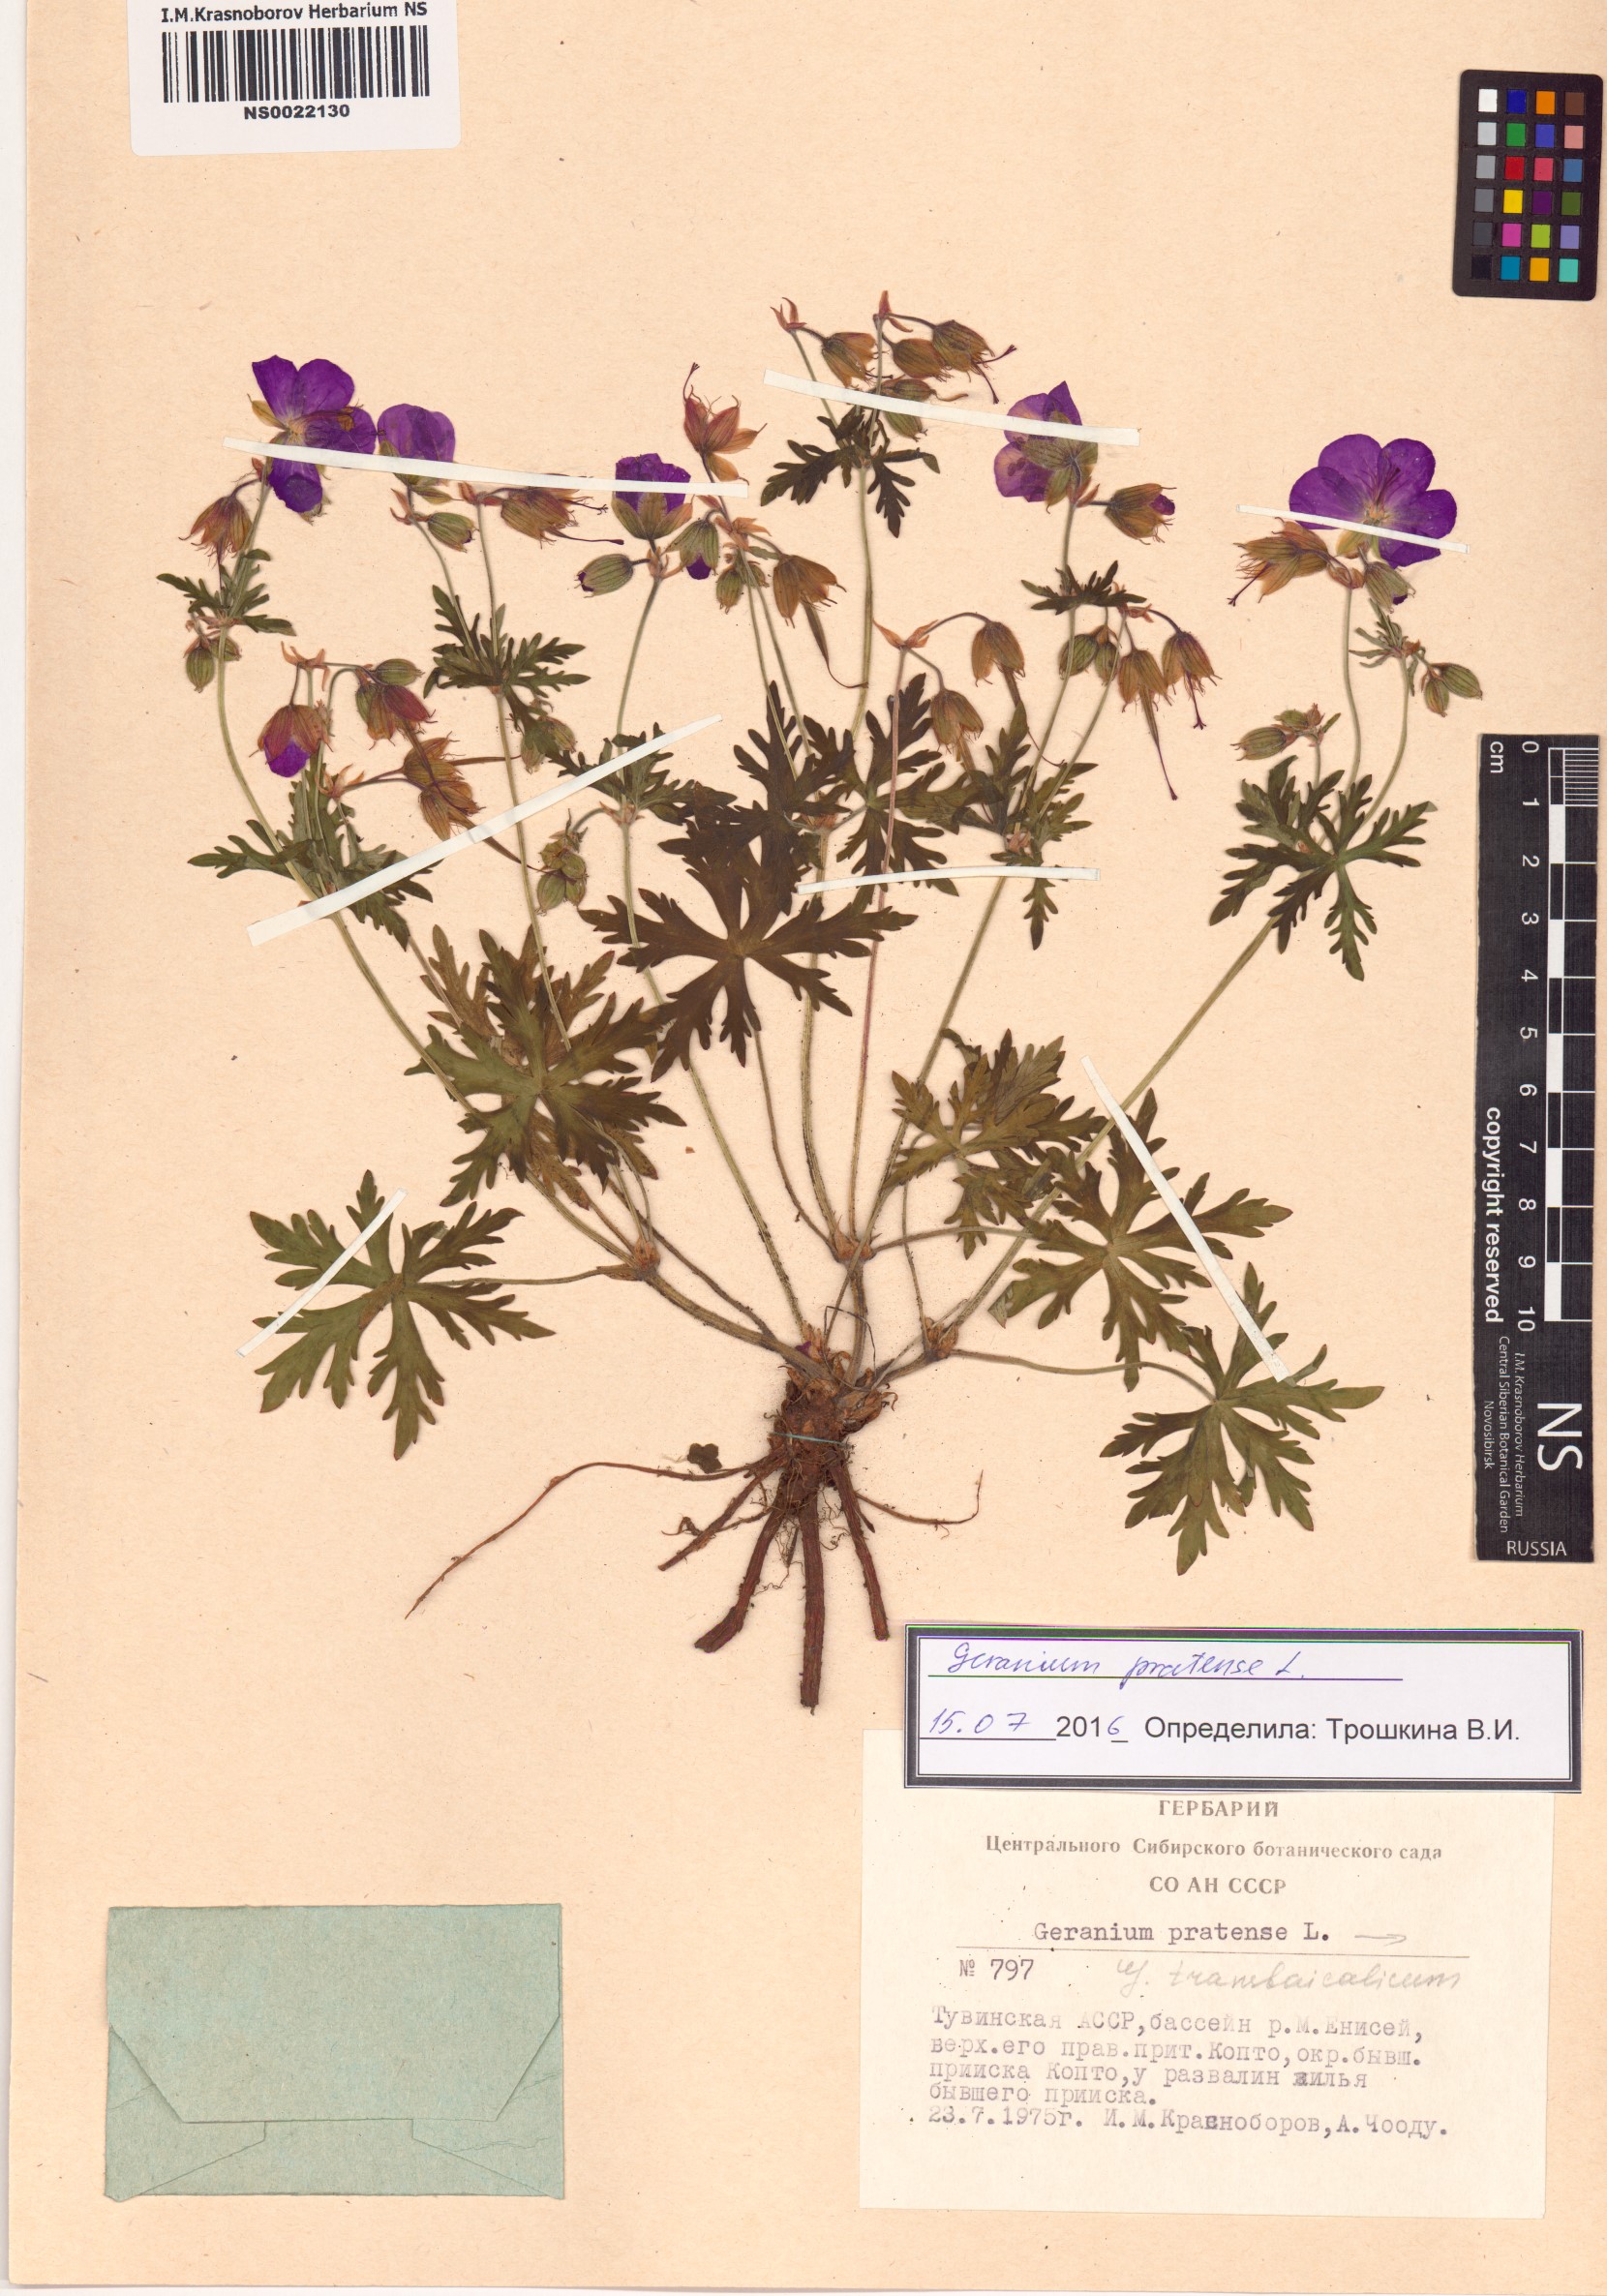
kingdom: Plantae
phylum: Tracheophyta
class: Magnoliopsida
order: Geraniales
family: Geraniaceae
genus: Geranium
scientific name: Geranium pratense
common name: Meadow crane's-bill
